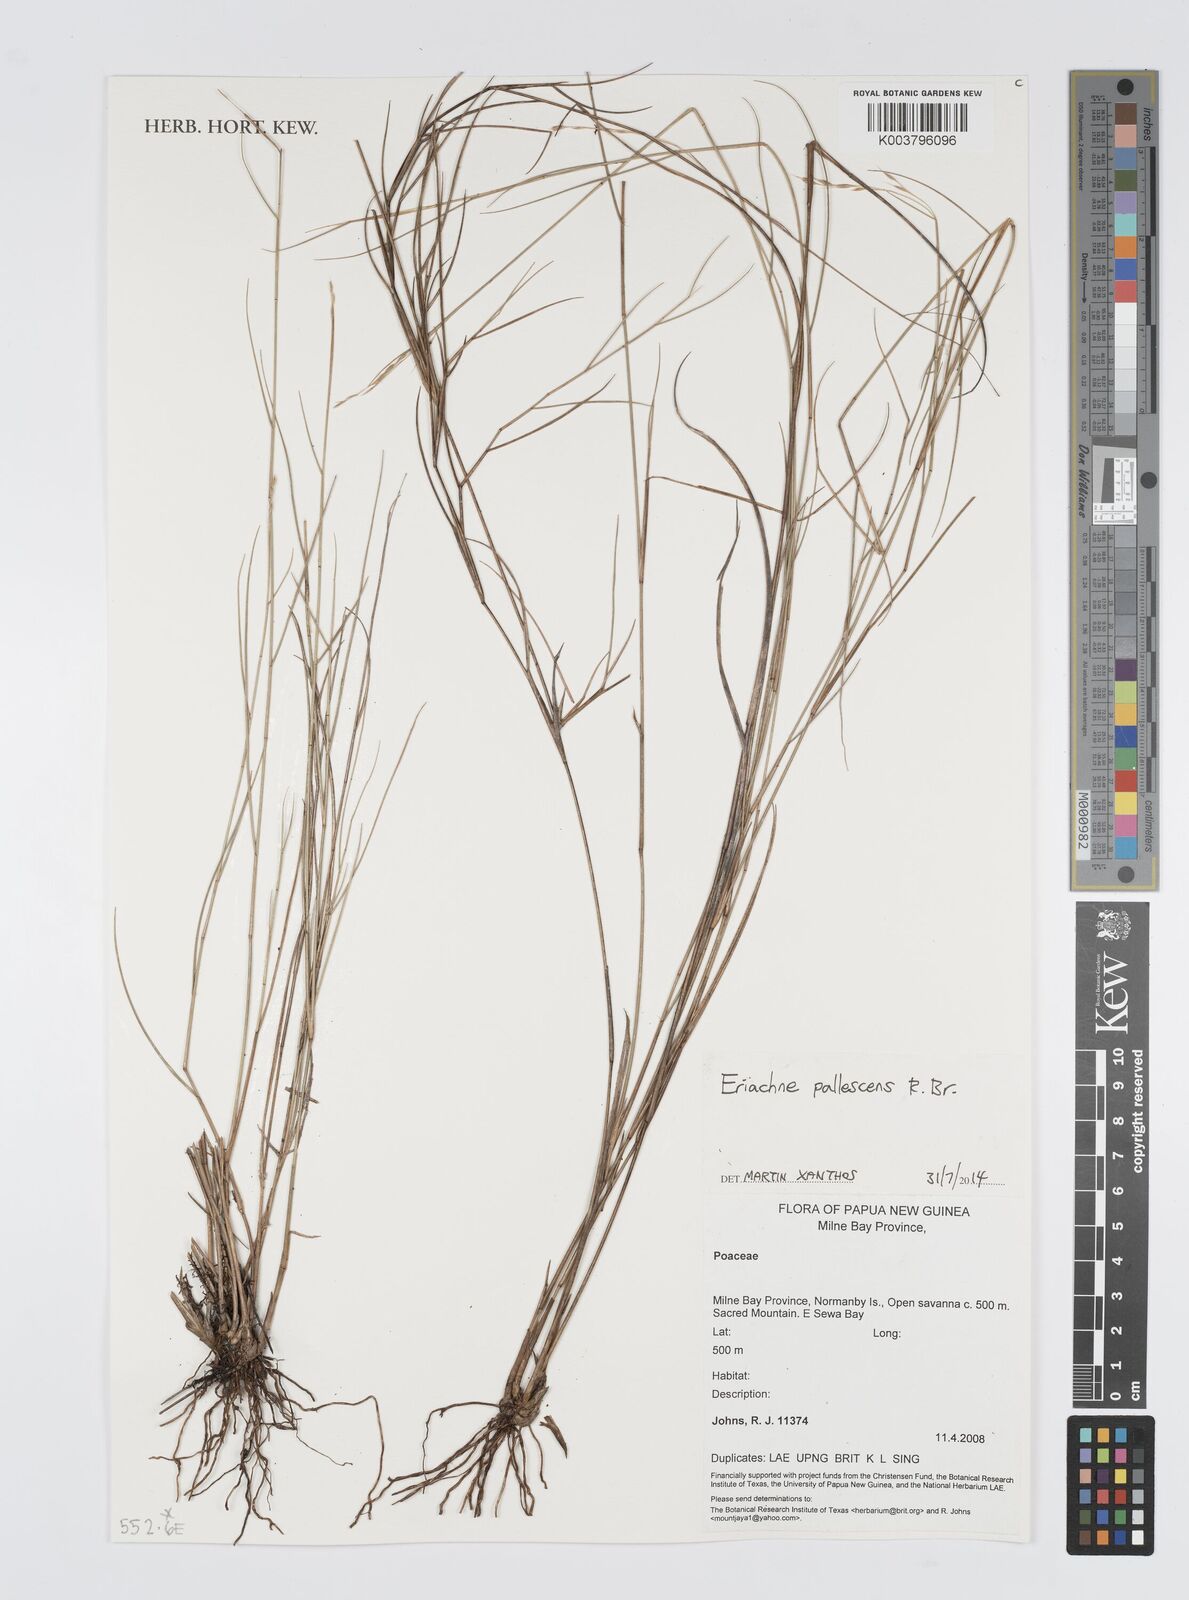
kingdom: Plantae
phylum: Tracheophyta
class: Liliopsida
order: Poales
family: Poaceae
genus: Digitaria
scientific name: Digitaria spec
